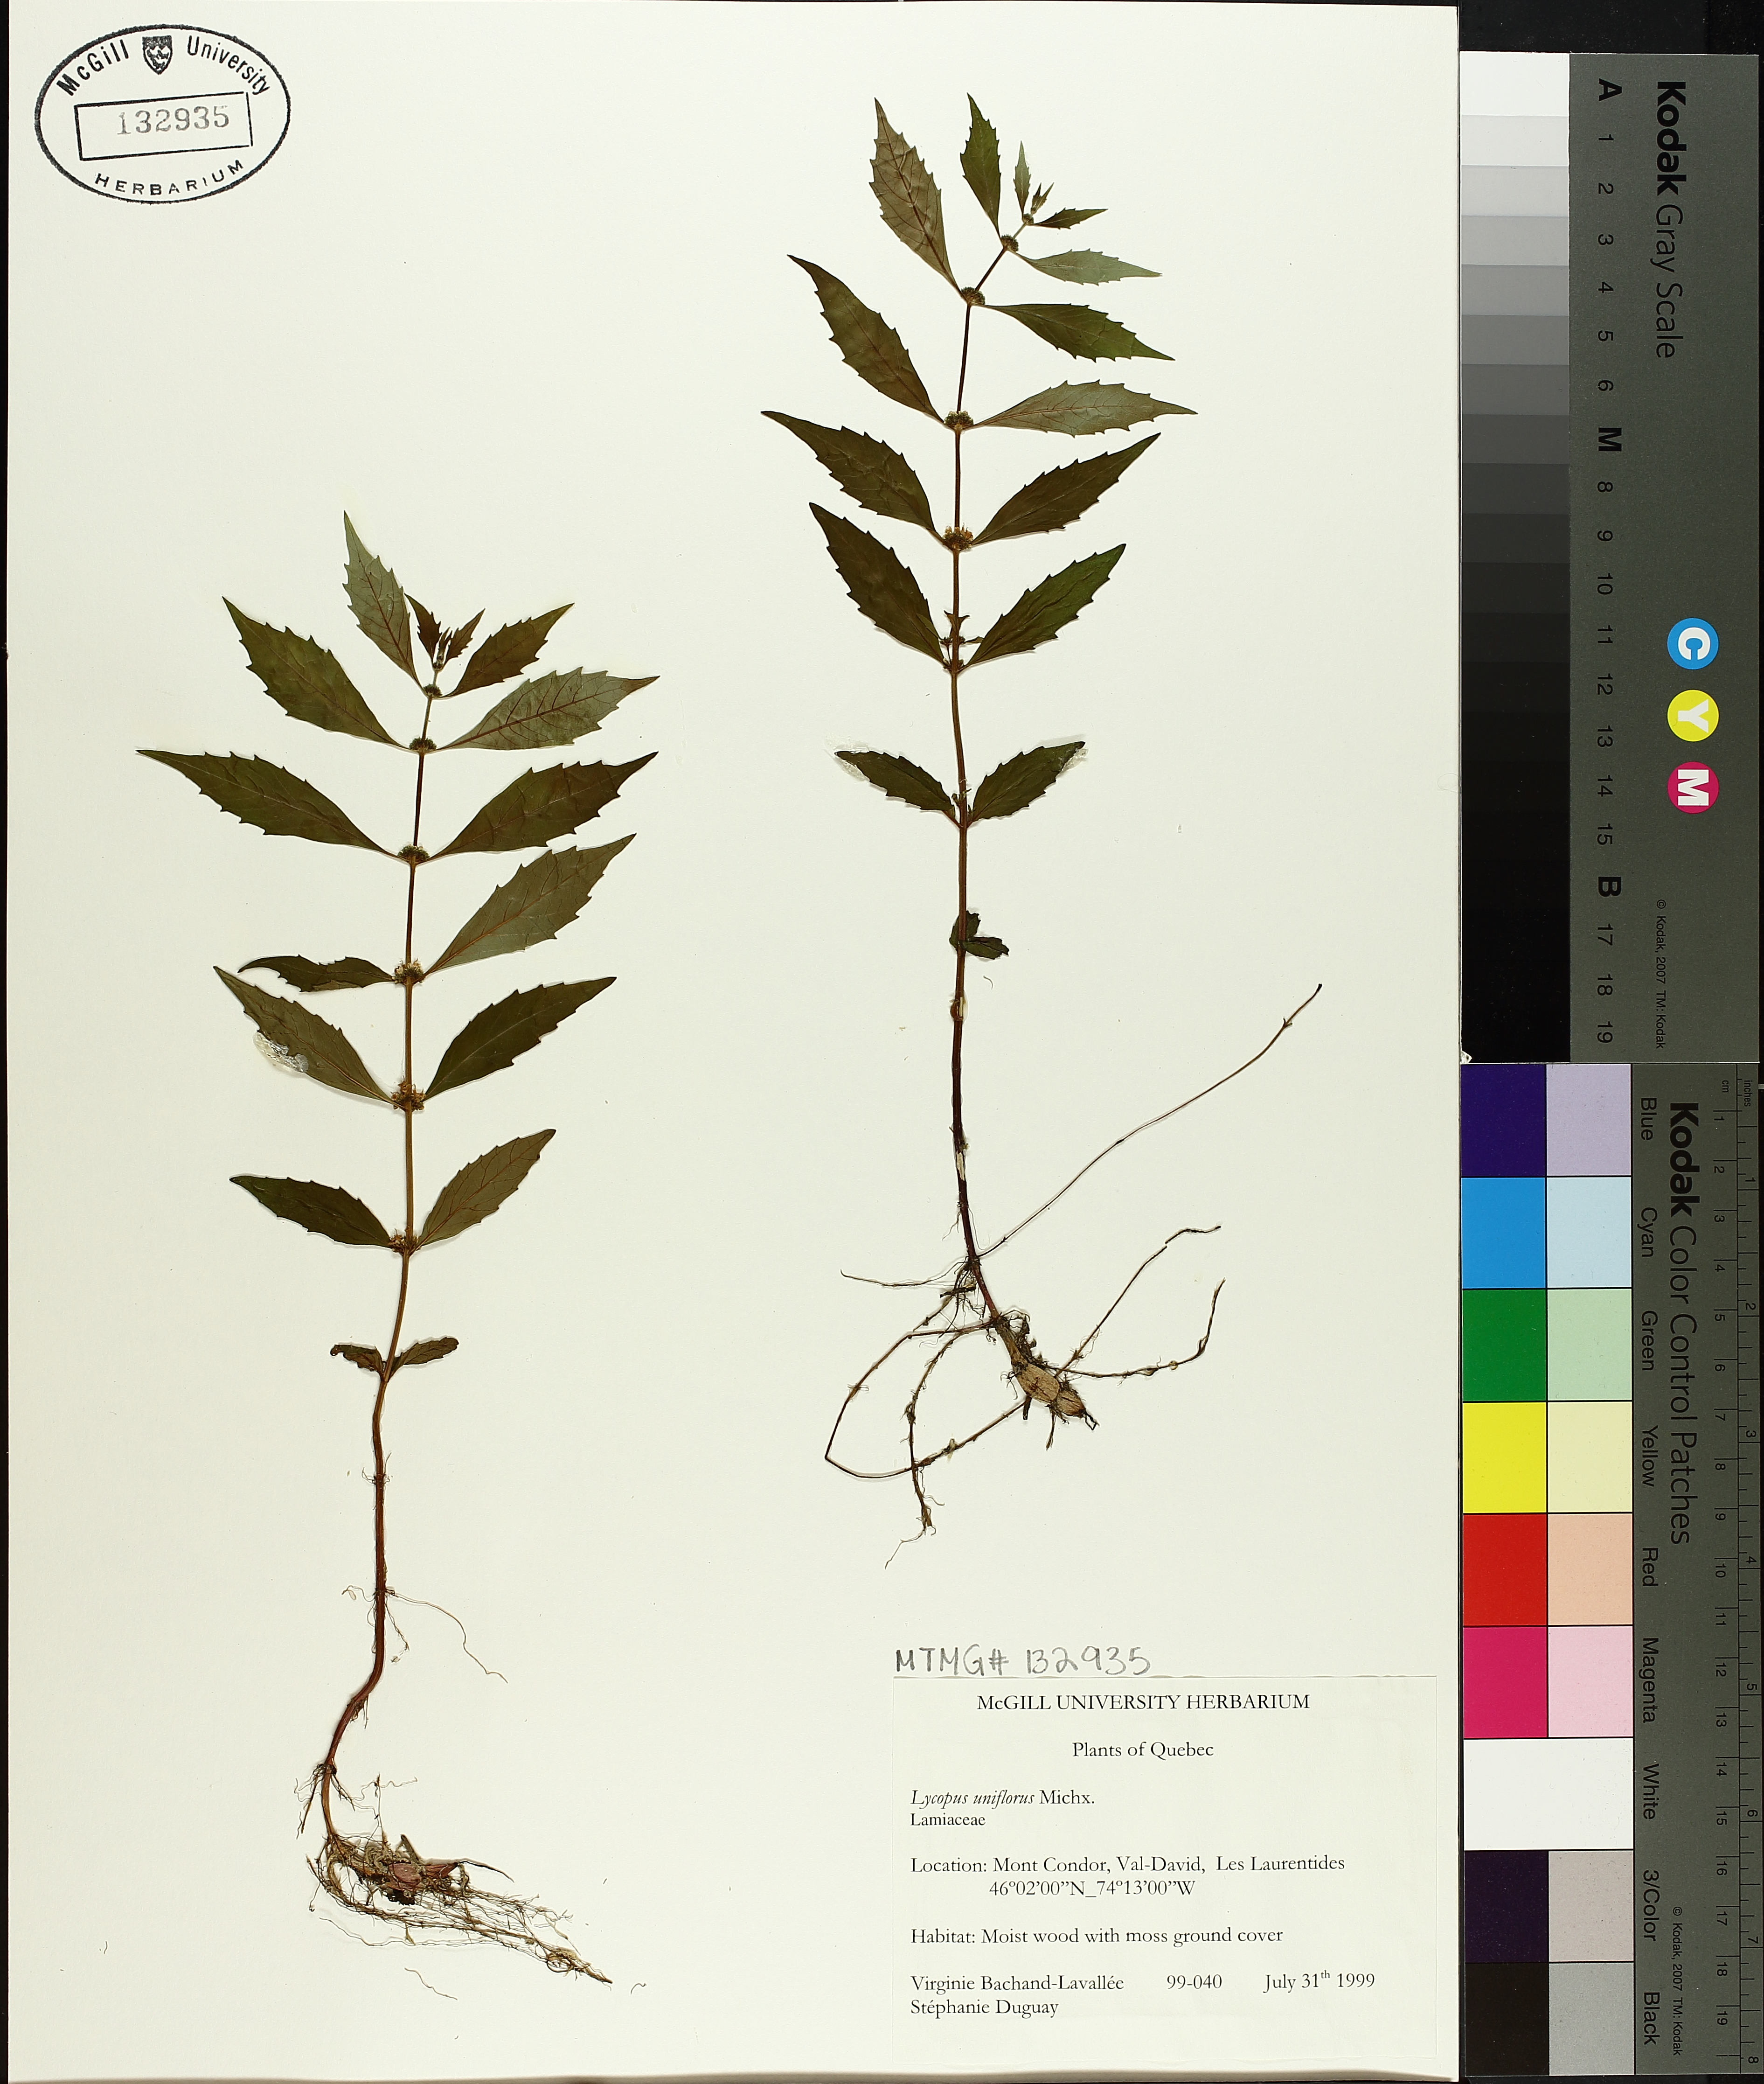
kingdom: Plantae
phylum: Tracheophyta
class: Magnoliopsida
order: Lamiales
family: Lamiaceae
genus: Lycopus
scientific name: Lycopus uniflorus
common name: Northern bugleweed
